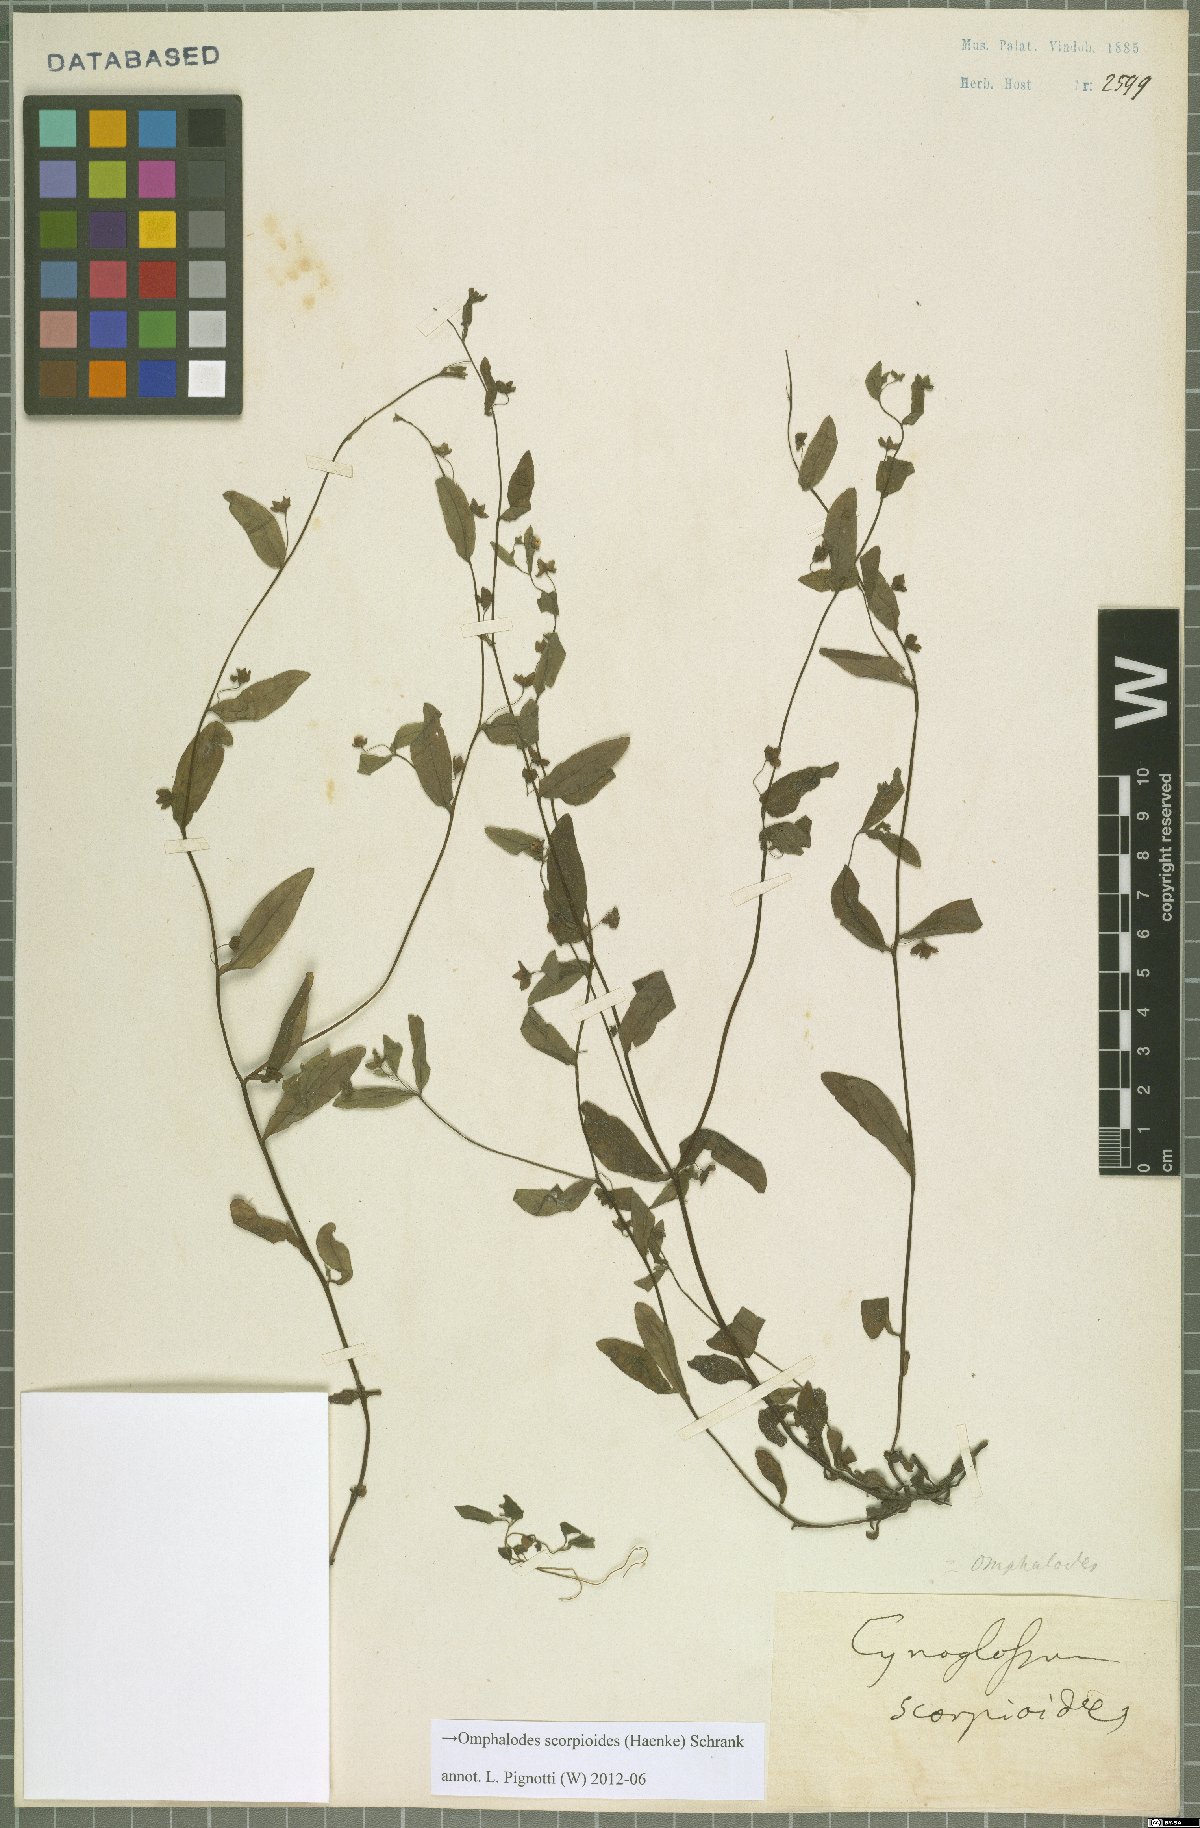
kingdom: Plantae
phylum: Tracheophyta
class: Magnoliopsida
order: Boraginales
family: Boraginaceae
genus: Memoremea
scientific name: Memoremea scorpioides
